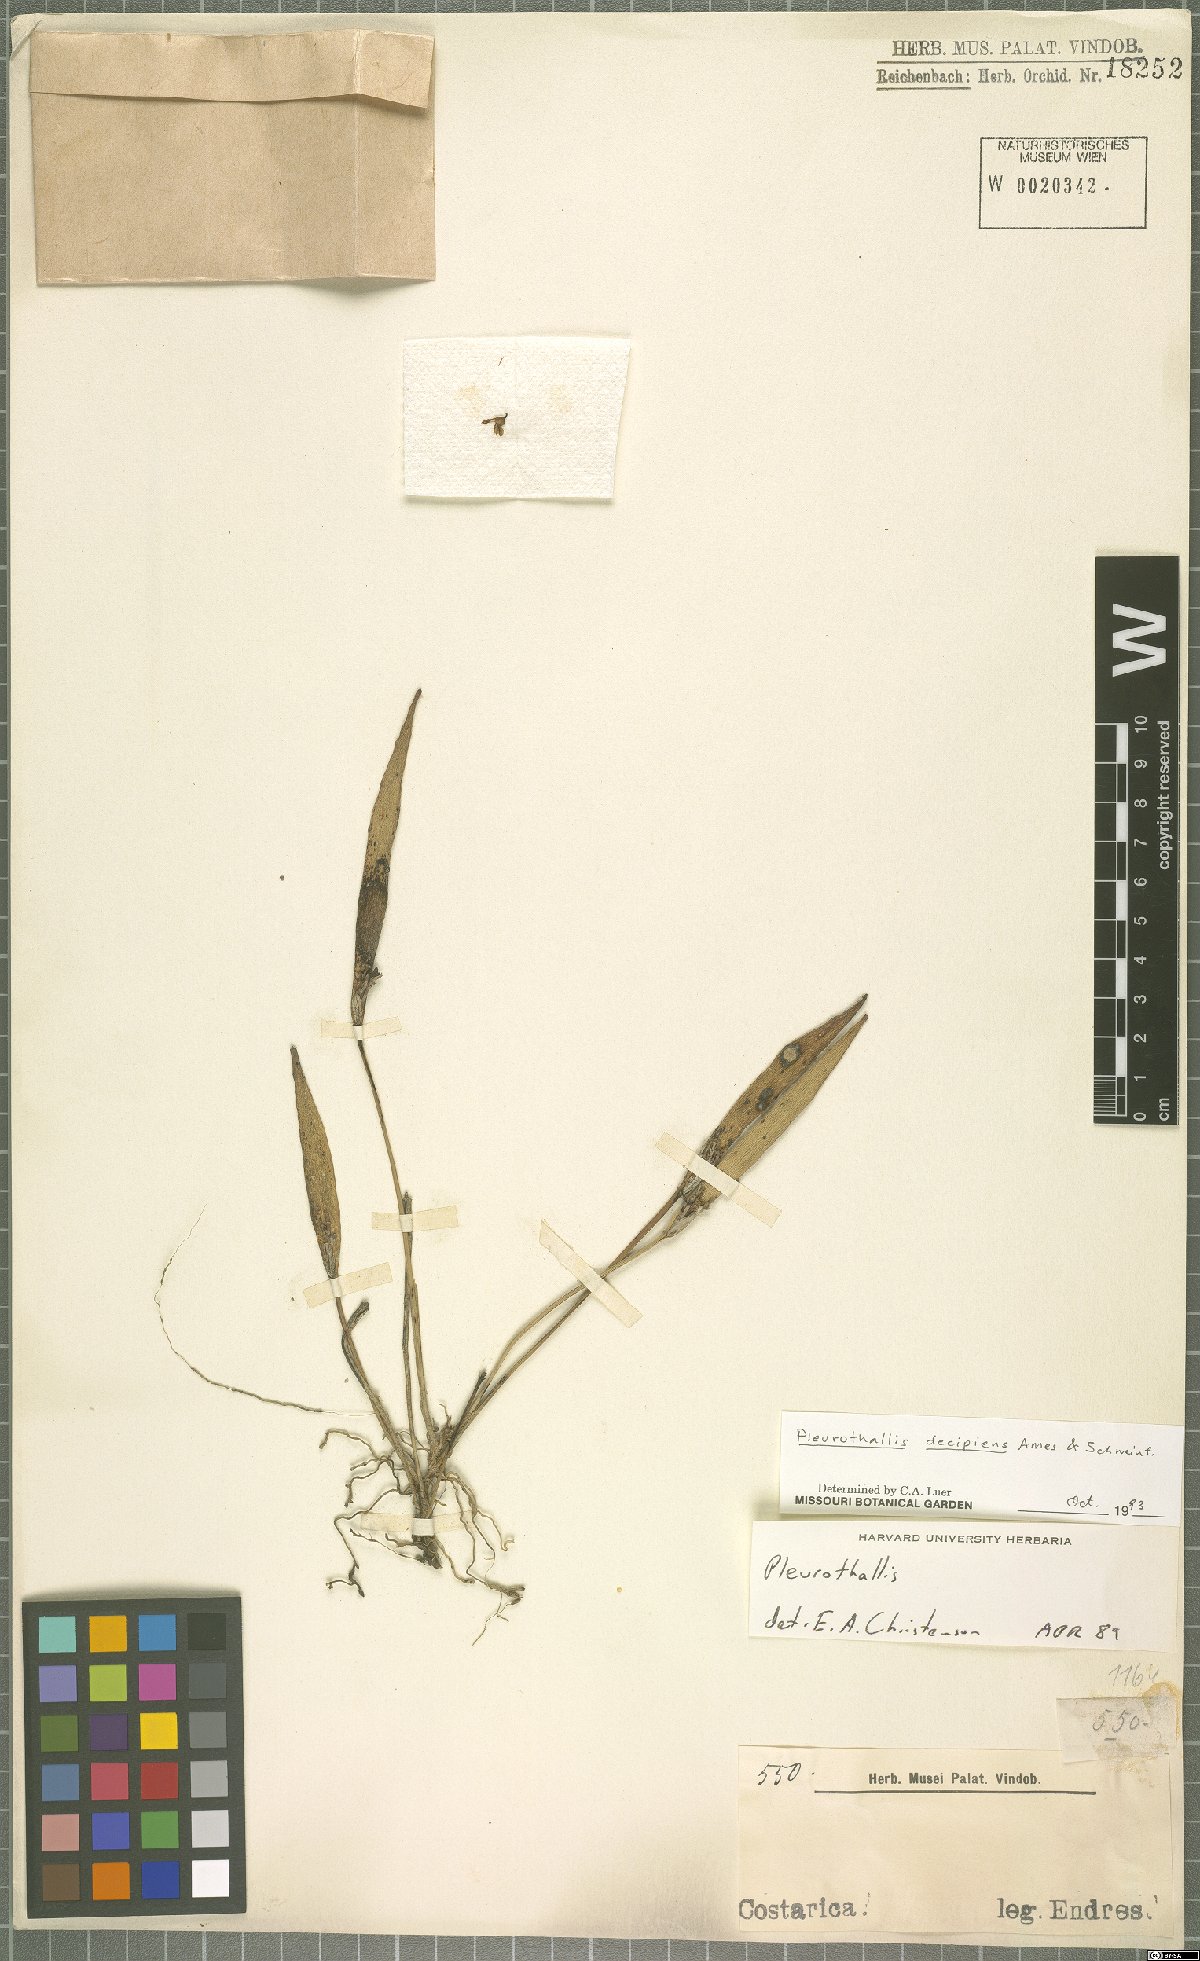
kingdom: Plantae
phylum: Tracheophyta
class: Liliopsida
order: Asparagales
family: Orchidaceae
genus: Acianthera
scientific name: Acianthera decipiens
